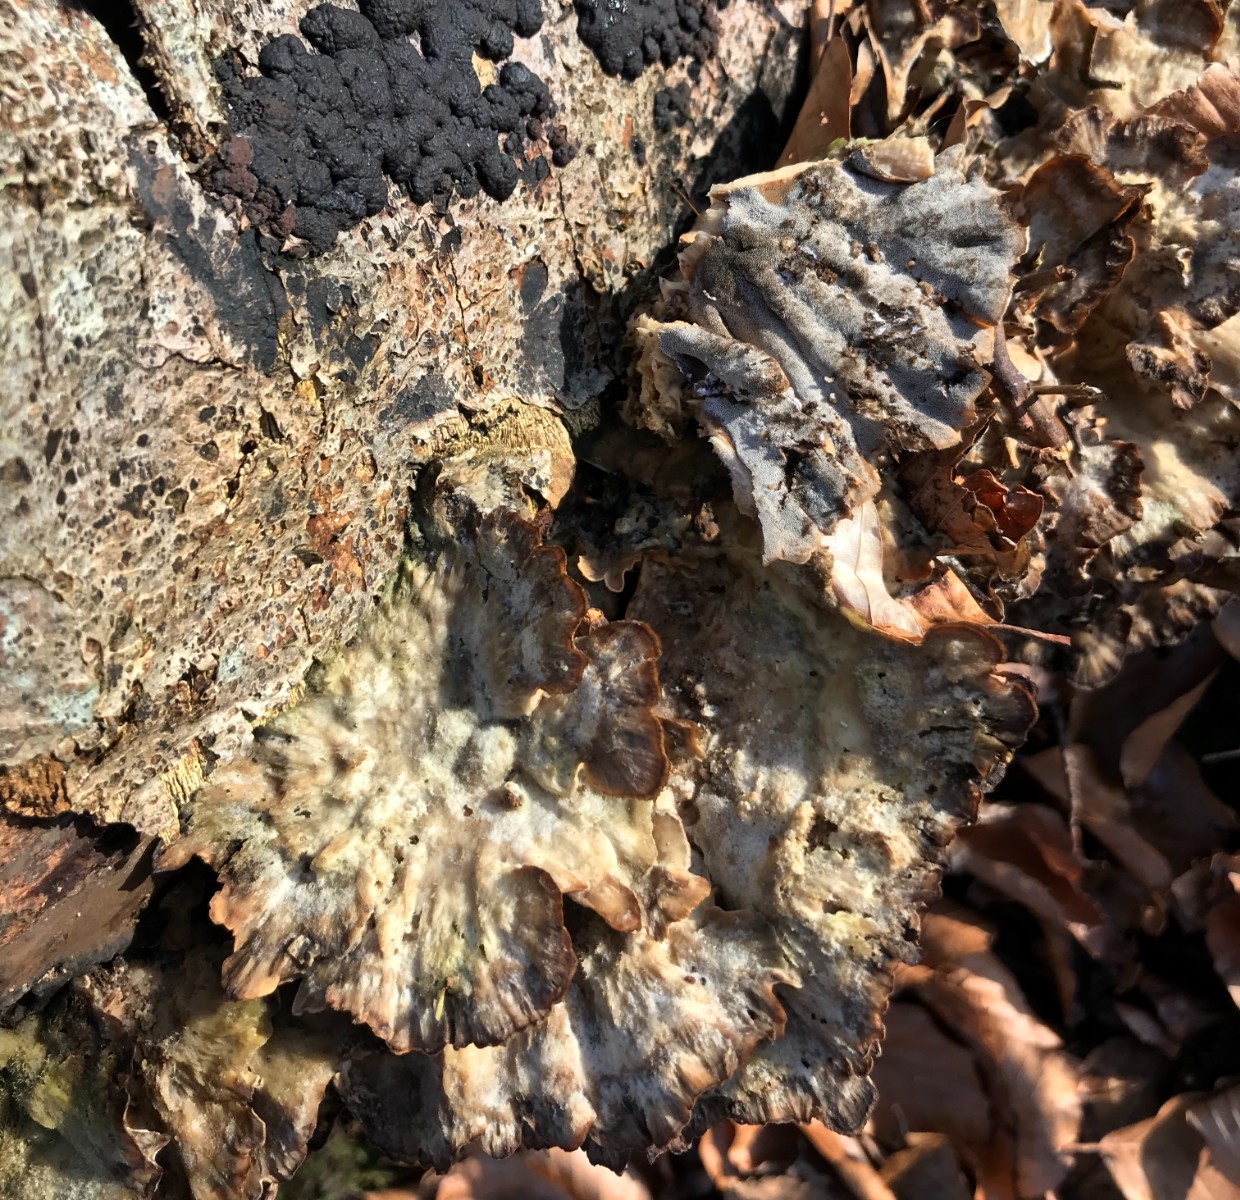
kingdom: Fungi
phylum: Basidiomycota
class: Agaricomycetes
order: Polyporales
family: Phanerochaetaceae
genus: Bjerkandera
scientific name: Bjerkandera adusta
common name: sveden sodporesvamp
